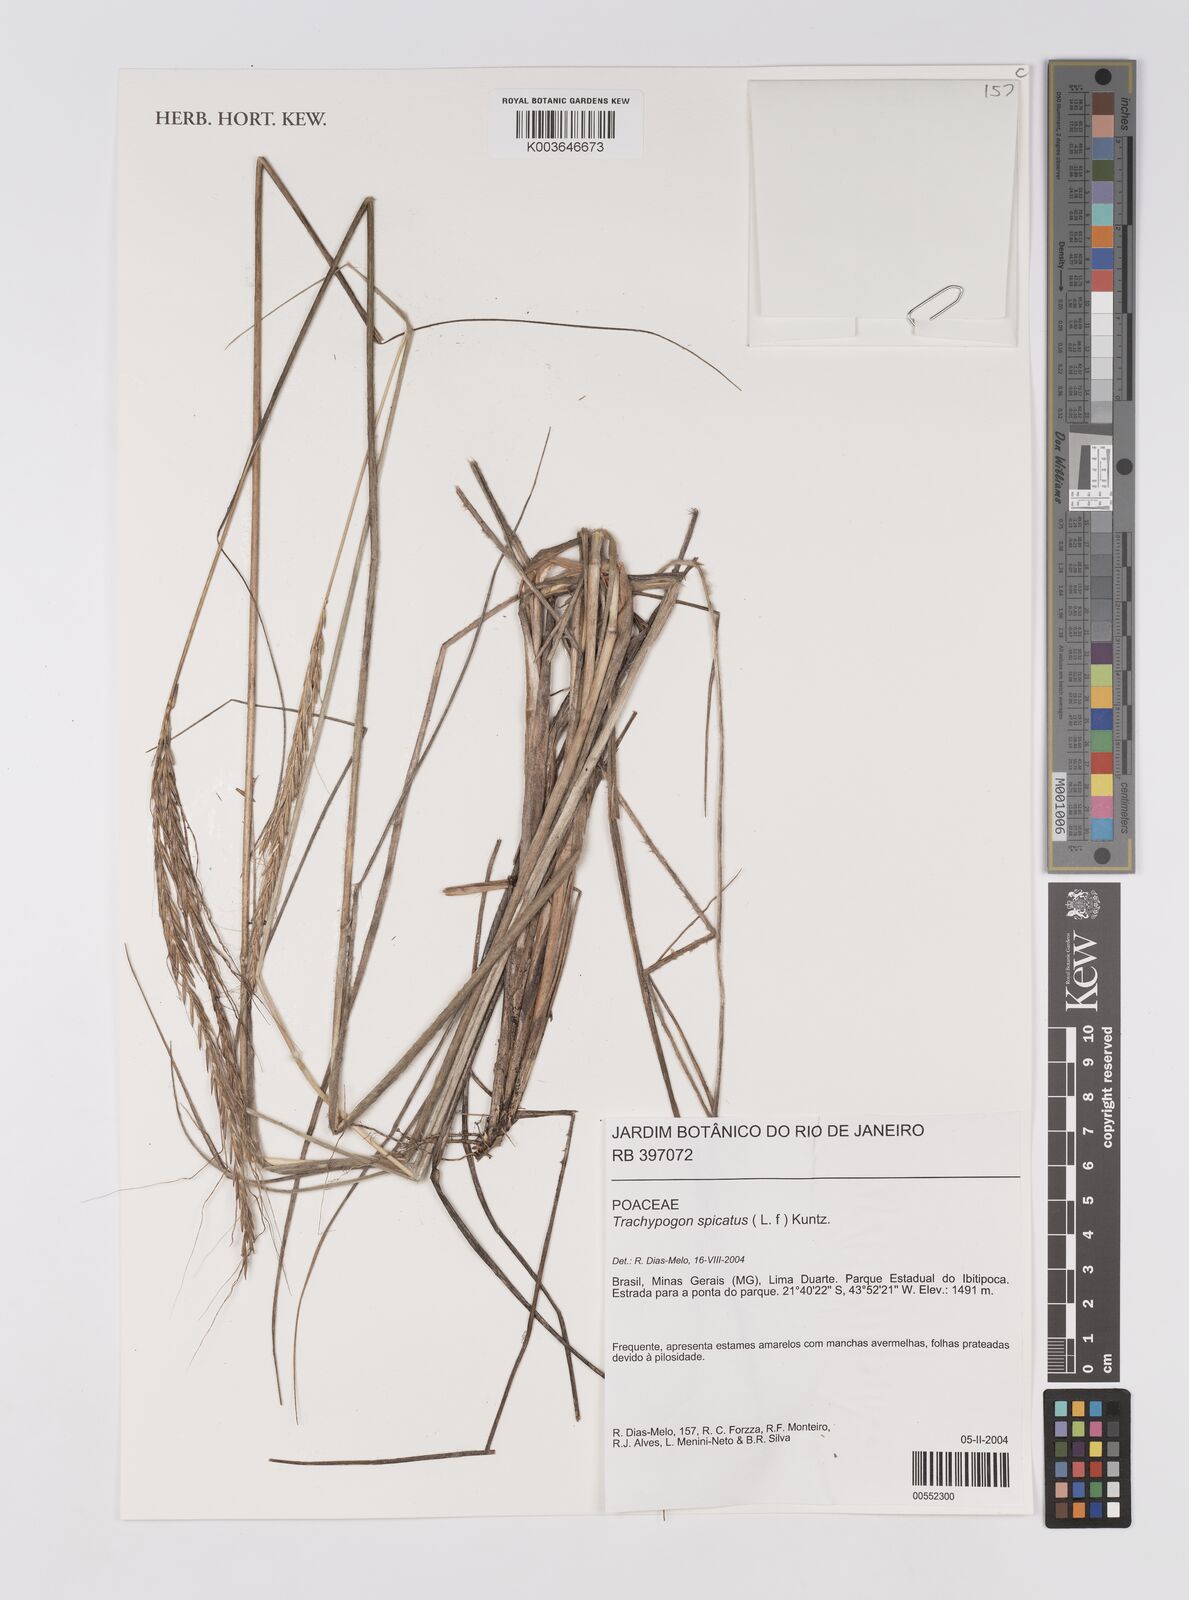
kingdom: Plantae
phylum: Tracheophyta
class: Liliopsida
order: Poales
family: Poaceae
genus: Trachypogon
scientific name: Trachypogon spicatus
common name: Crinkle-awn
